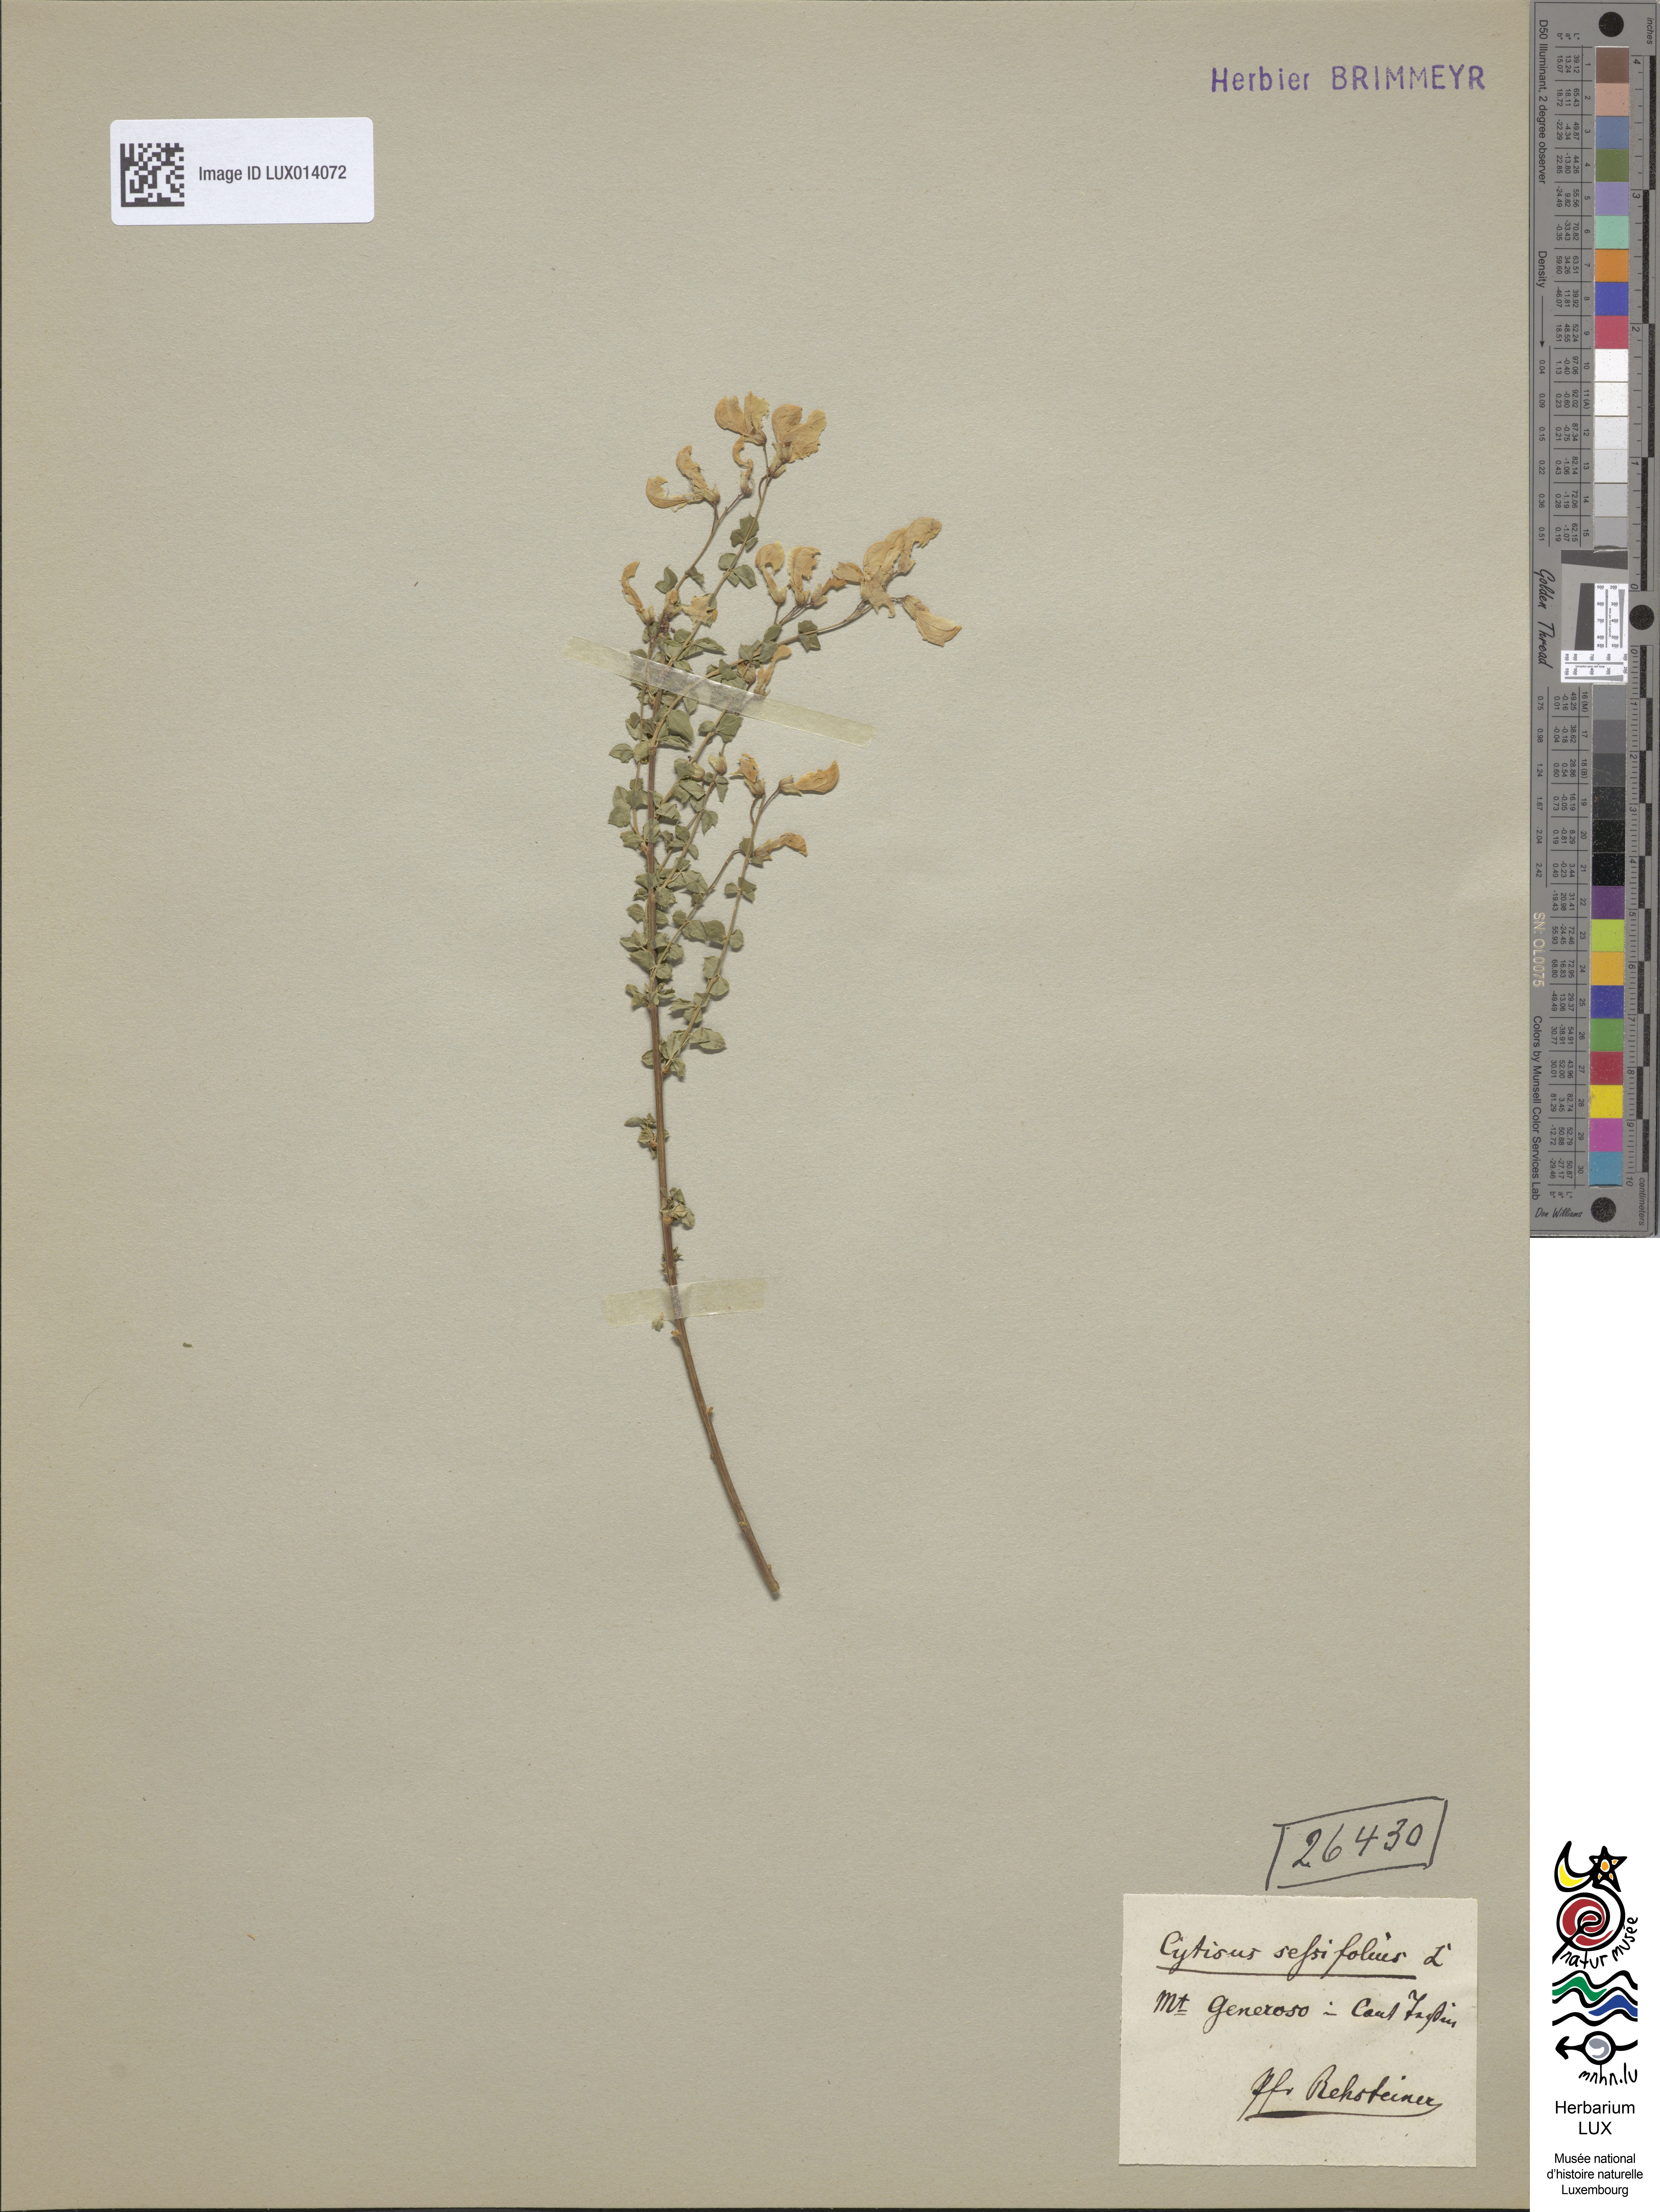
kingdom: Plantae
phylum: Tracheophyta
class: Magnoliopsida
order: Fabales
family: Fabaceae
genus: Cytisophyllum
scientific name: Cytisophyllum sessilifolium
